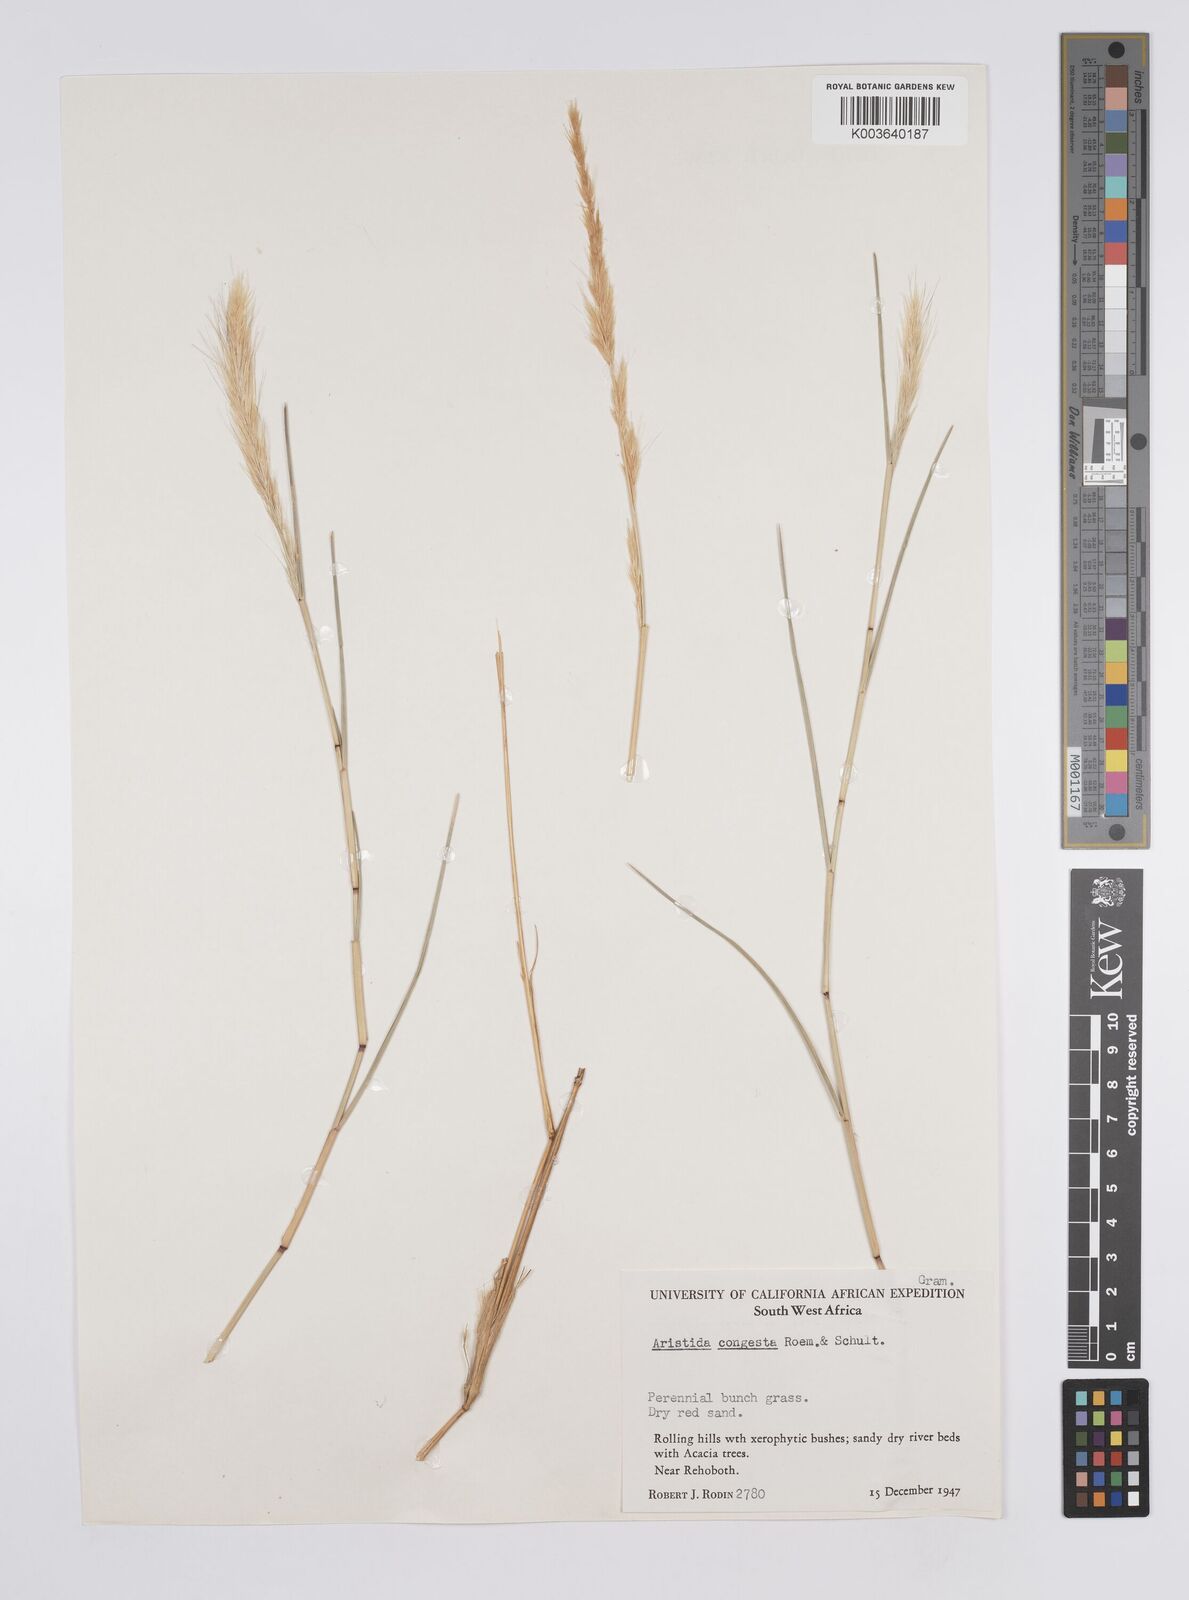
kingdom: Plantae
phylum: Tracheophyta
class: Liliopsida
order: Poales
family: Poaceae
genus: Aristida
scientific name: Aristida congesta
